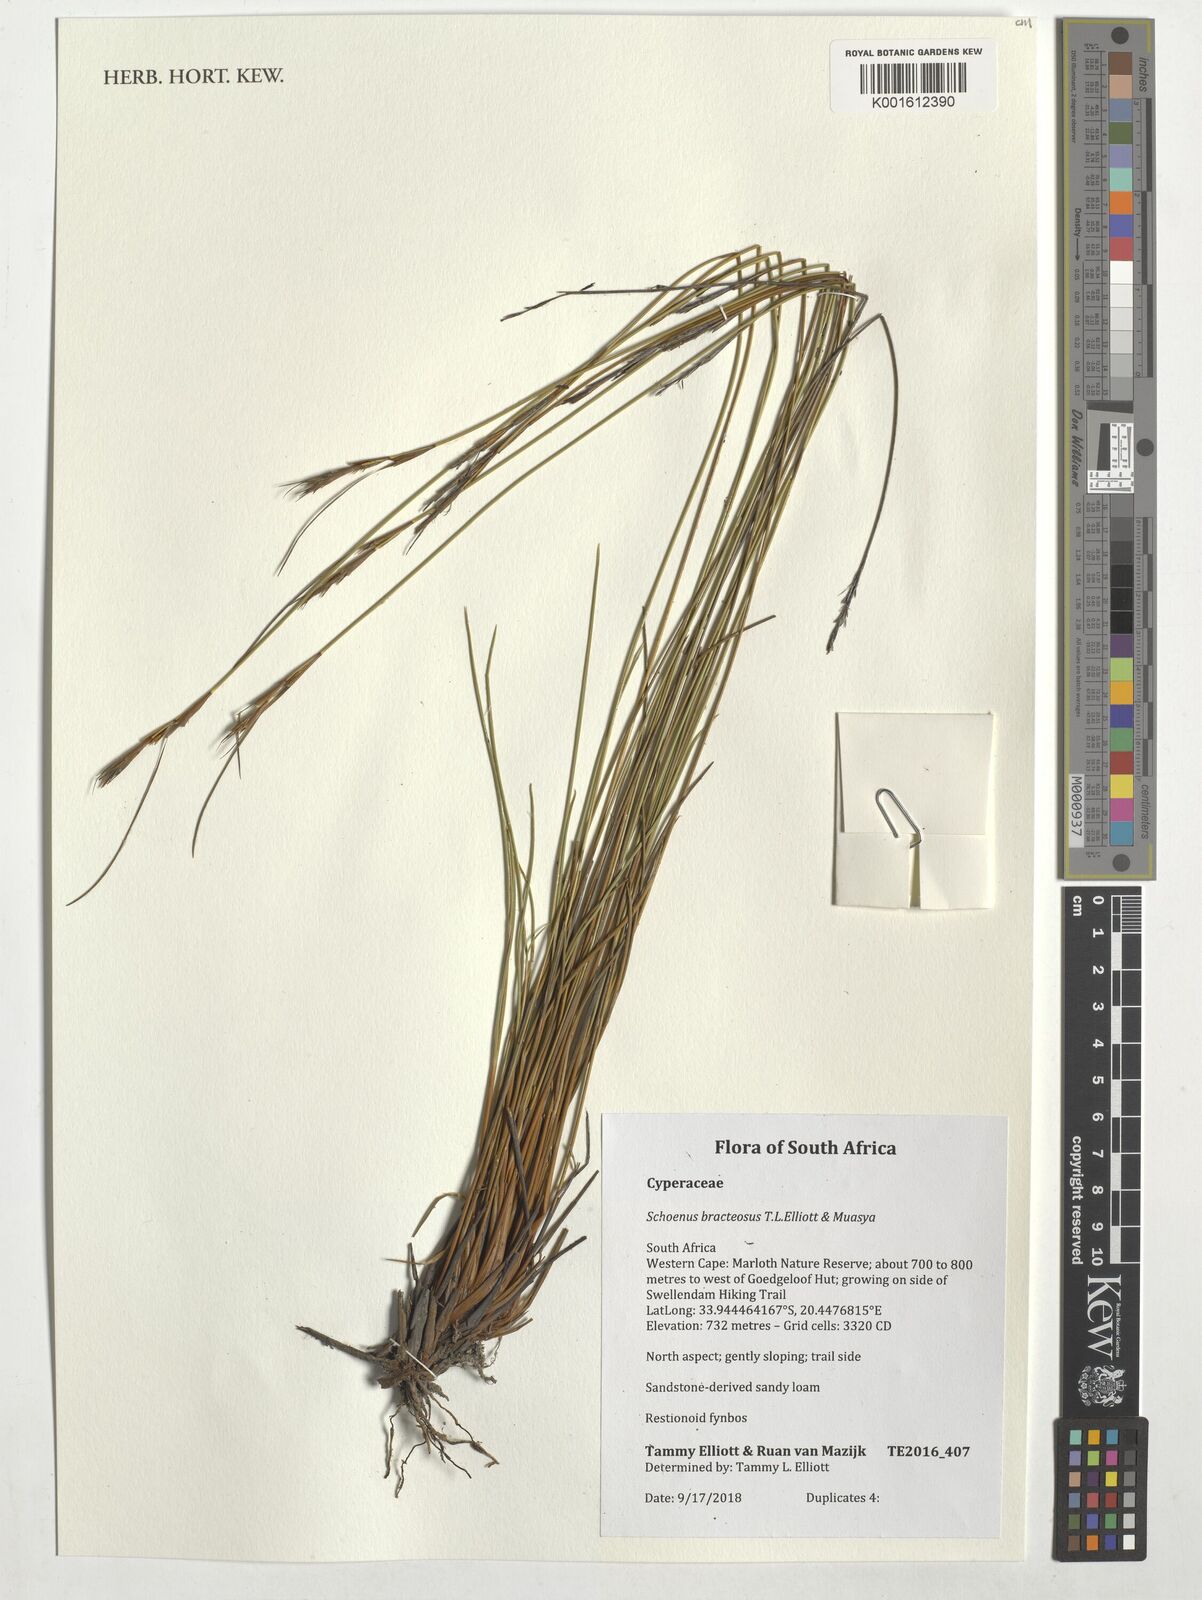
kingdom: Plantae
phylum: Tracheophyta
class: Liliopsida
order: Poales
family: Cyperaceae
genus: Schoenus
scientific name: Schoenus bracteosus
